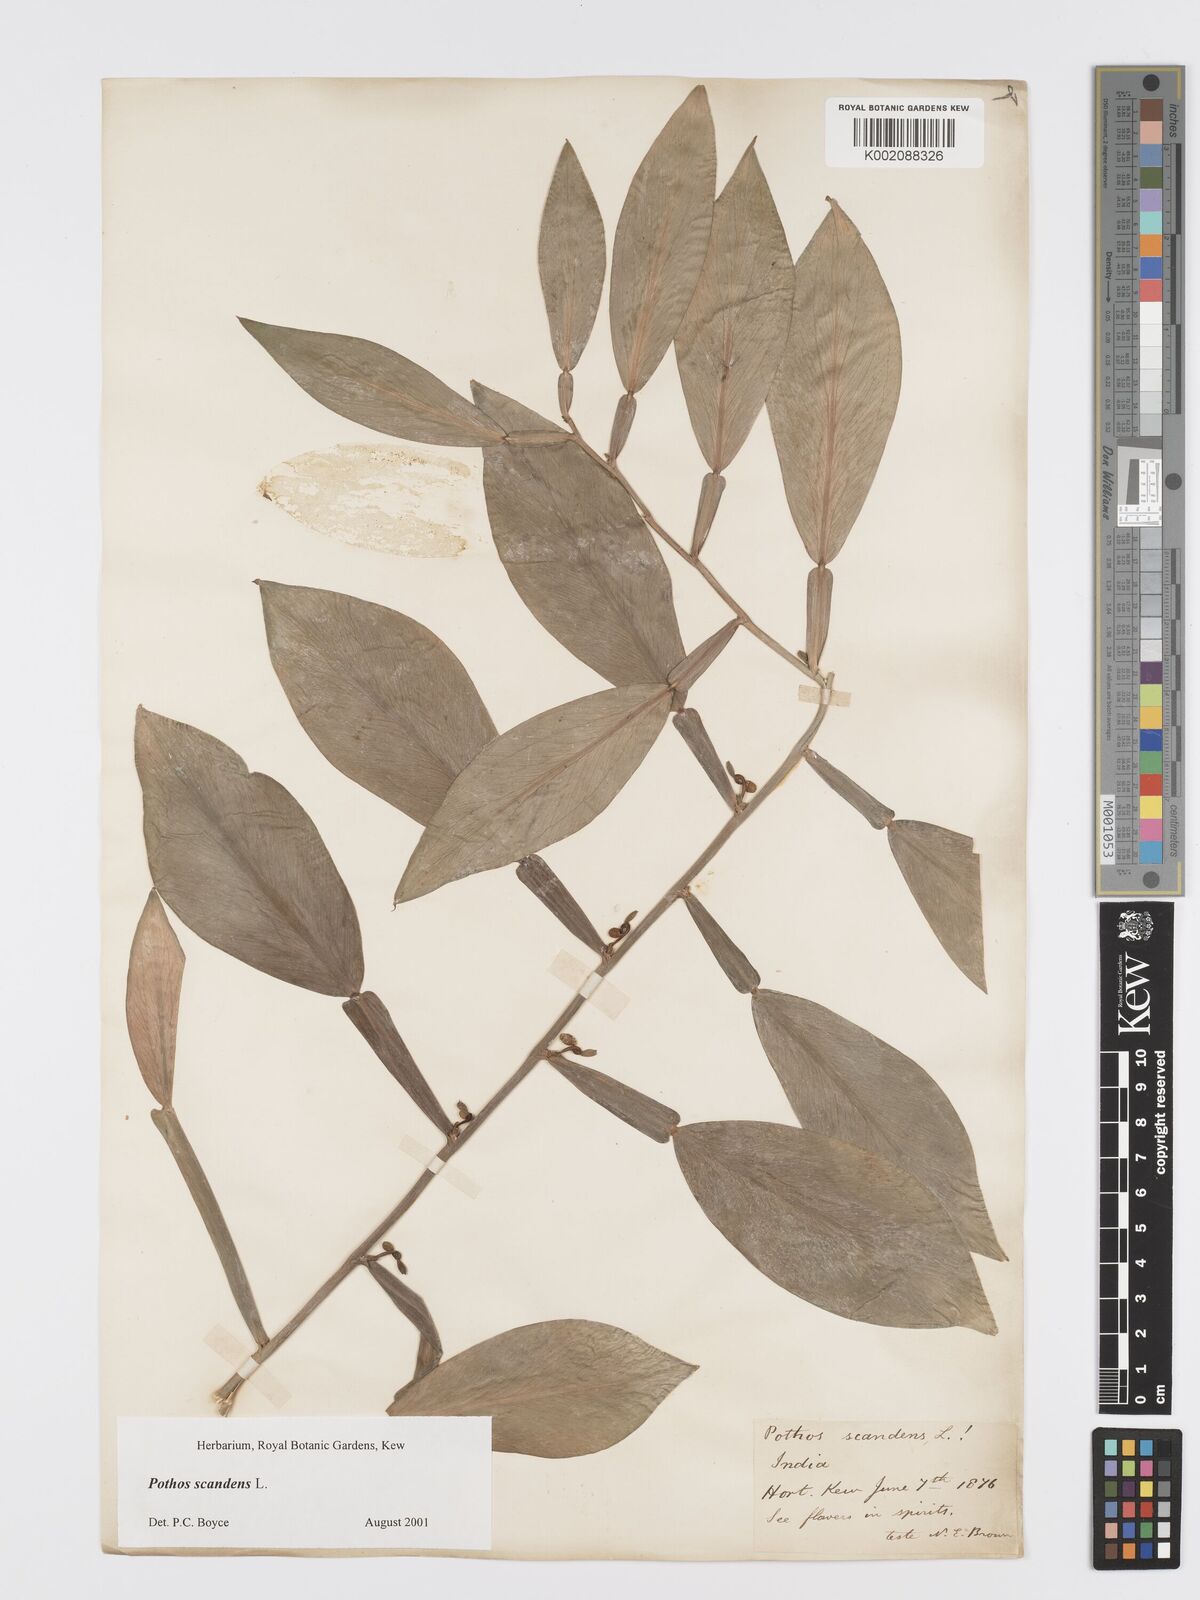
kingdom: Plantae
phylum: Tracheophyta
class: Liliopsida
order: Alismatales
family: Araceae
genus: Pothos
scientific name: Pothos scandens
